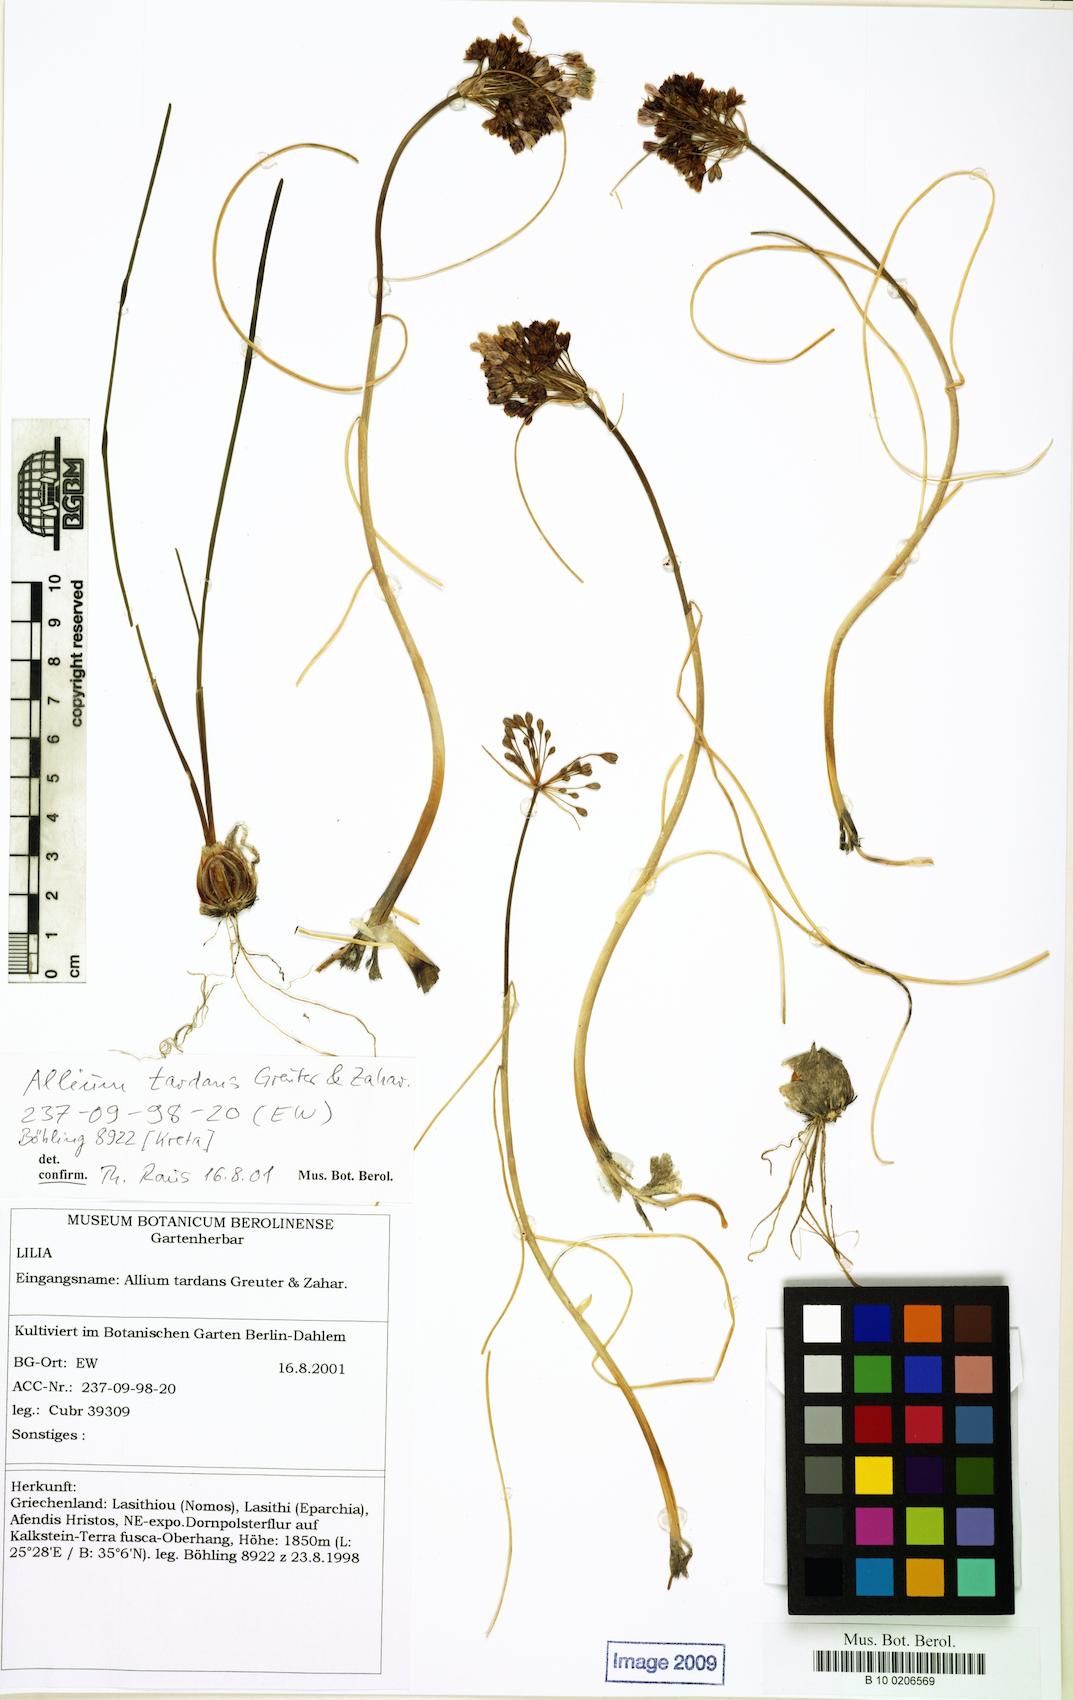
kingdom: Plantae
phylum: Tracheophyta
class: Liliopsida
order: Asparagales
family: Amaryllidaceae
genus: Allium
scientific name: Allium tardans
